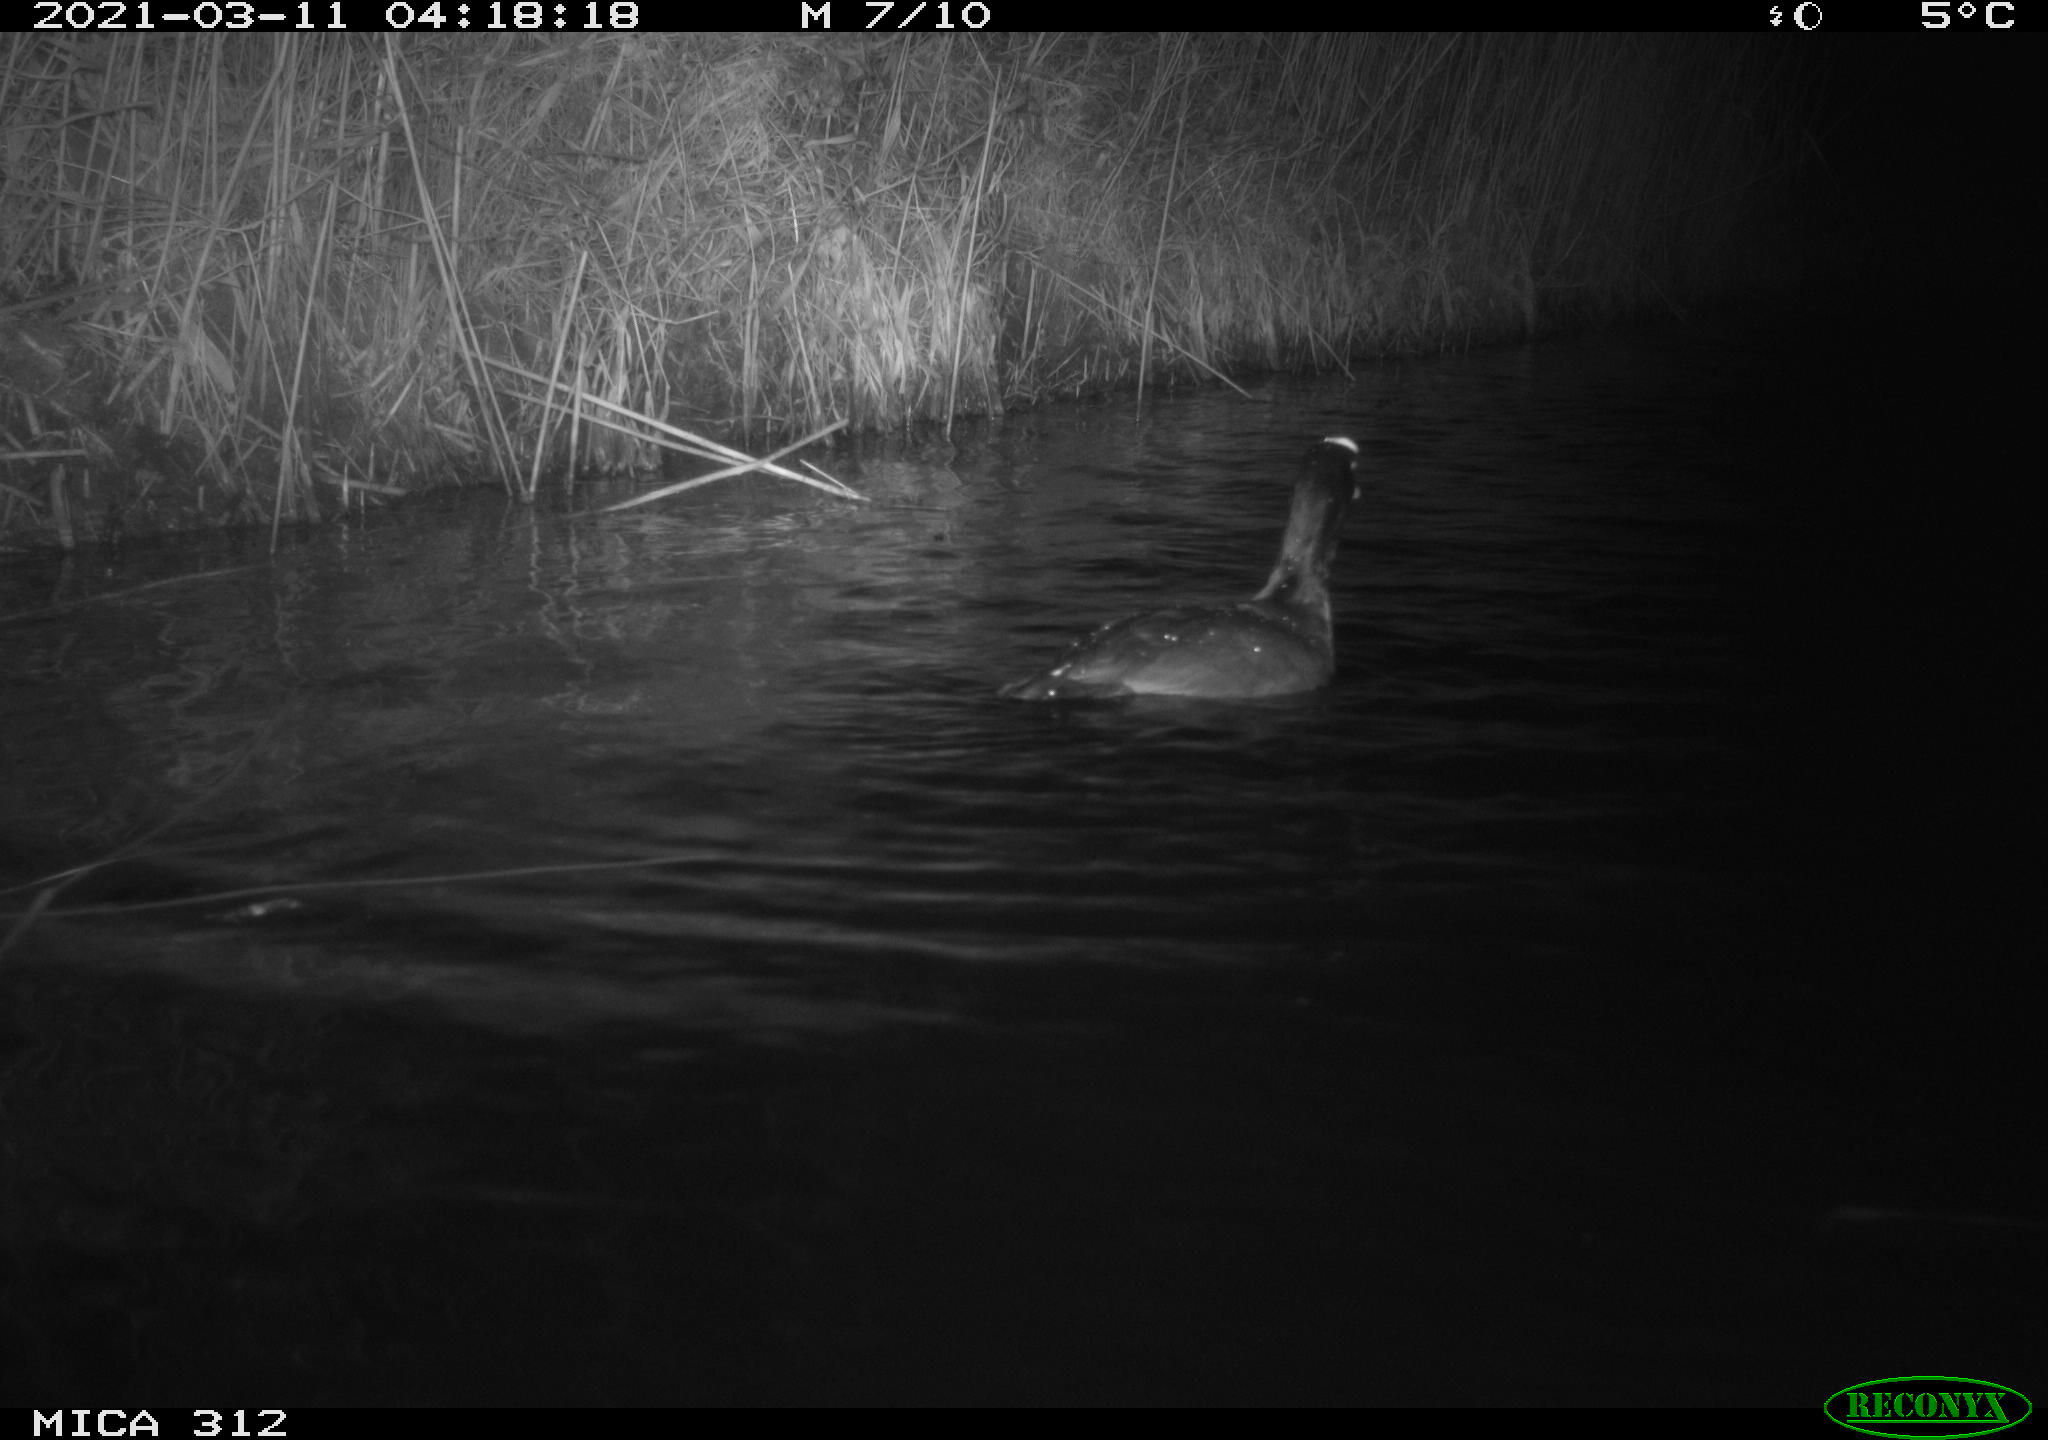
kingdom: Animalia
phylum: Chordata
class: Aves
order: Gruiformes
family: Rallidae
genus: Fulica
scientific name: Fulica atra
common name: Eurasian coot
